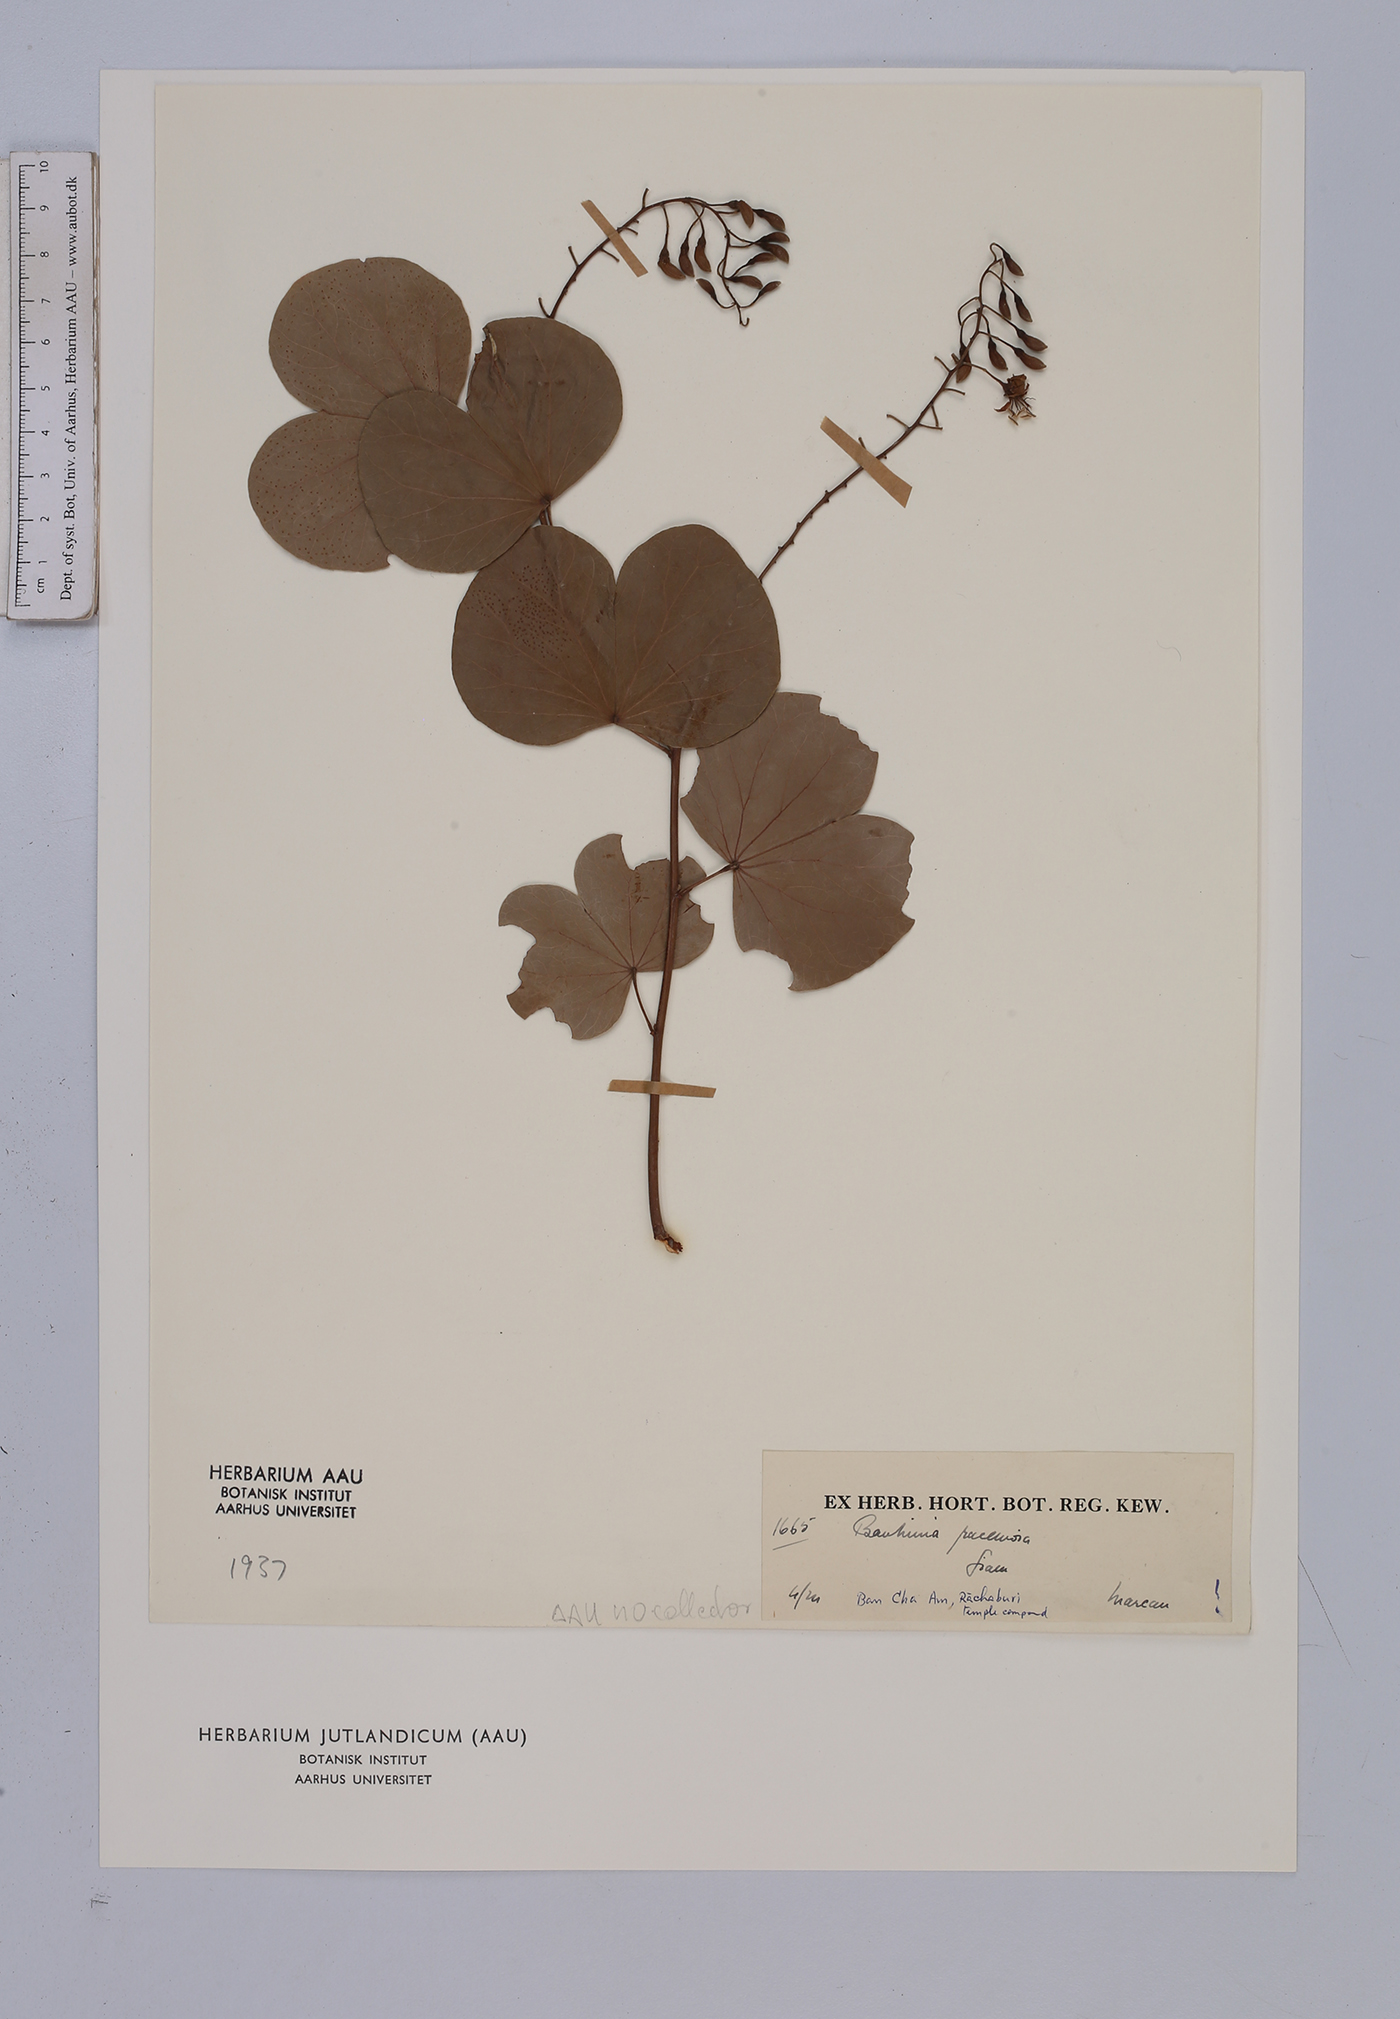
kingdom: Plantae
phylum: Tracheophyta
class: Magnoliopsida
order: Fabales
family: Fabaceae
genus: Bauhinia
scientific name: Bauhinia racemosa
